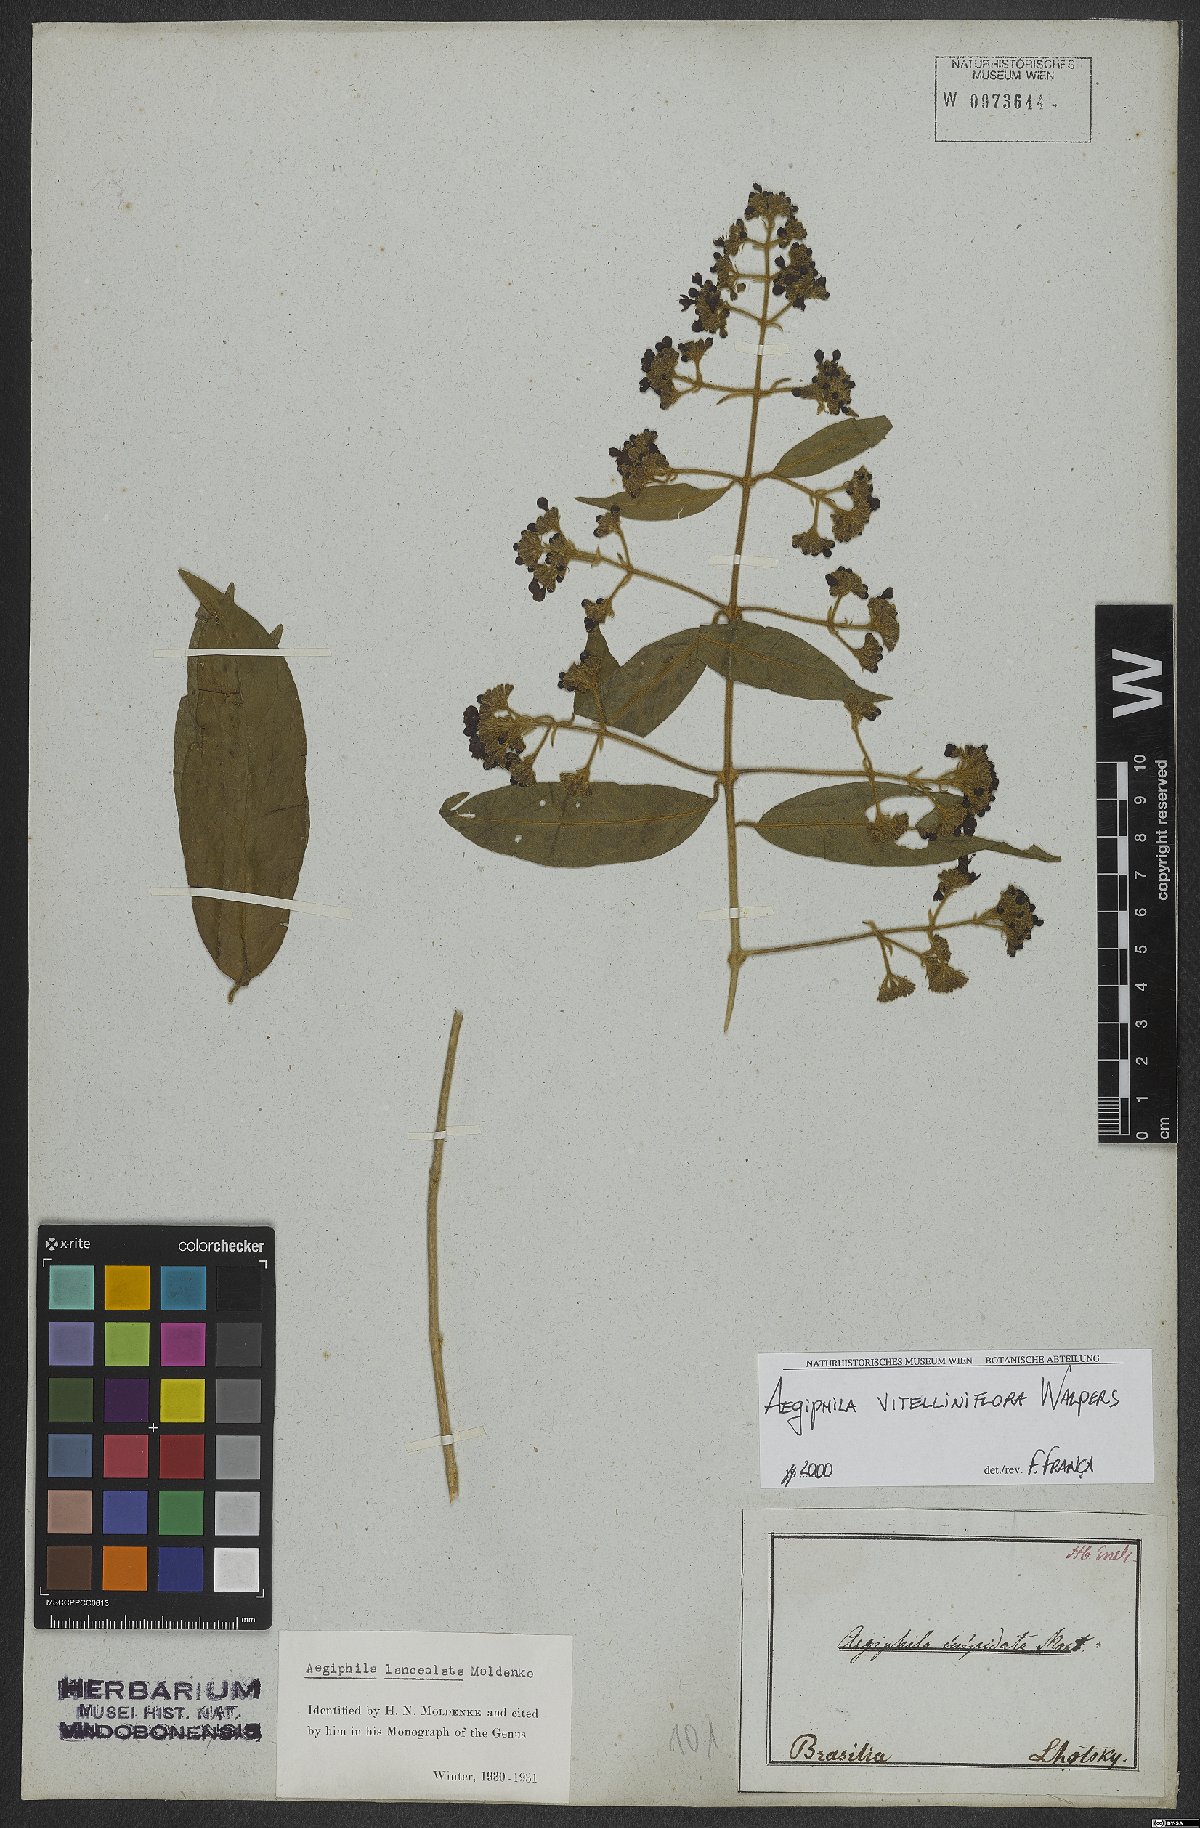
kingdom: Plantae
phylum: Tracheophyta
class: Magnoliopsida
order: Lamiales
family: Lamiaceae
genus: Aegiphila
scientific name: Aegiphila vitelliniflora
